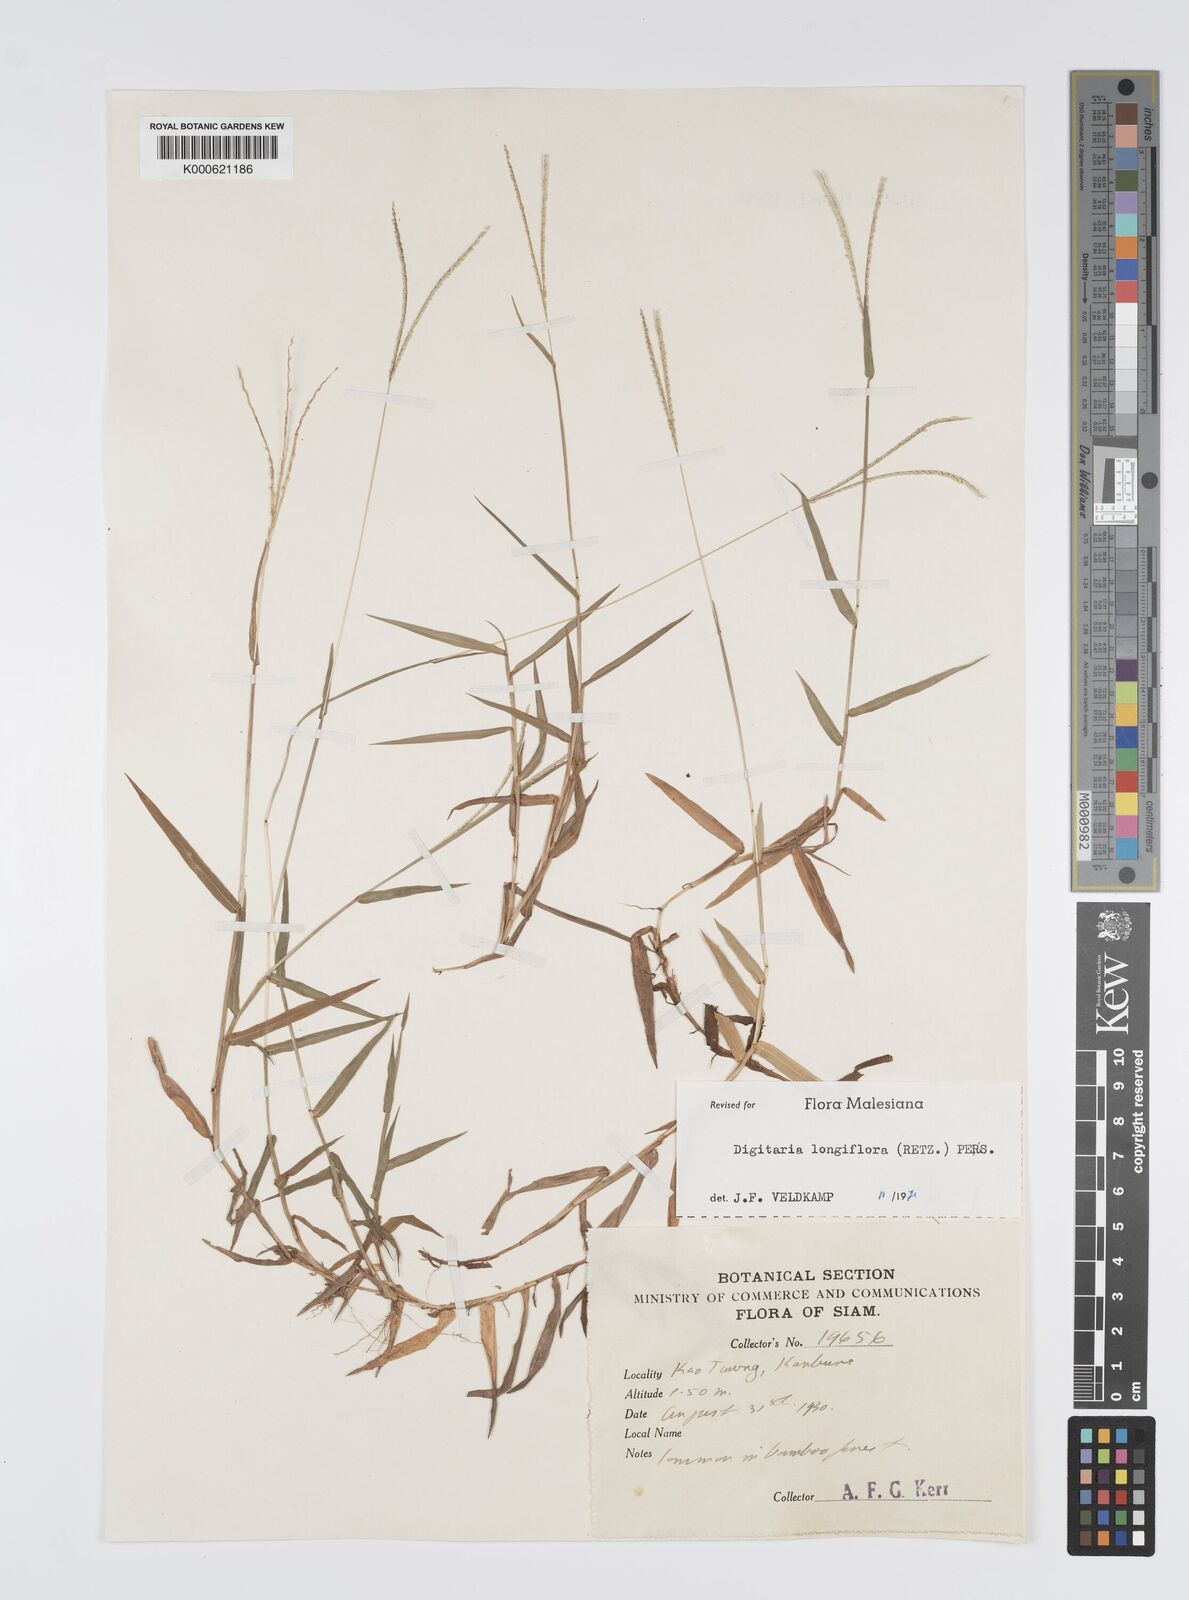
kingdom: Plantae
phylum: Tracheophyta
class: Liliopsida
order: Poales
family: Poaceae
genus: Digitaria
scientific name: Digitaria longiflora
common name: Wire crabgrass
